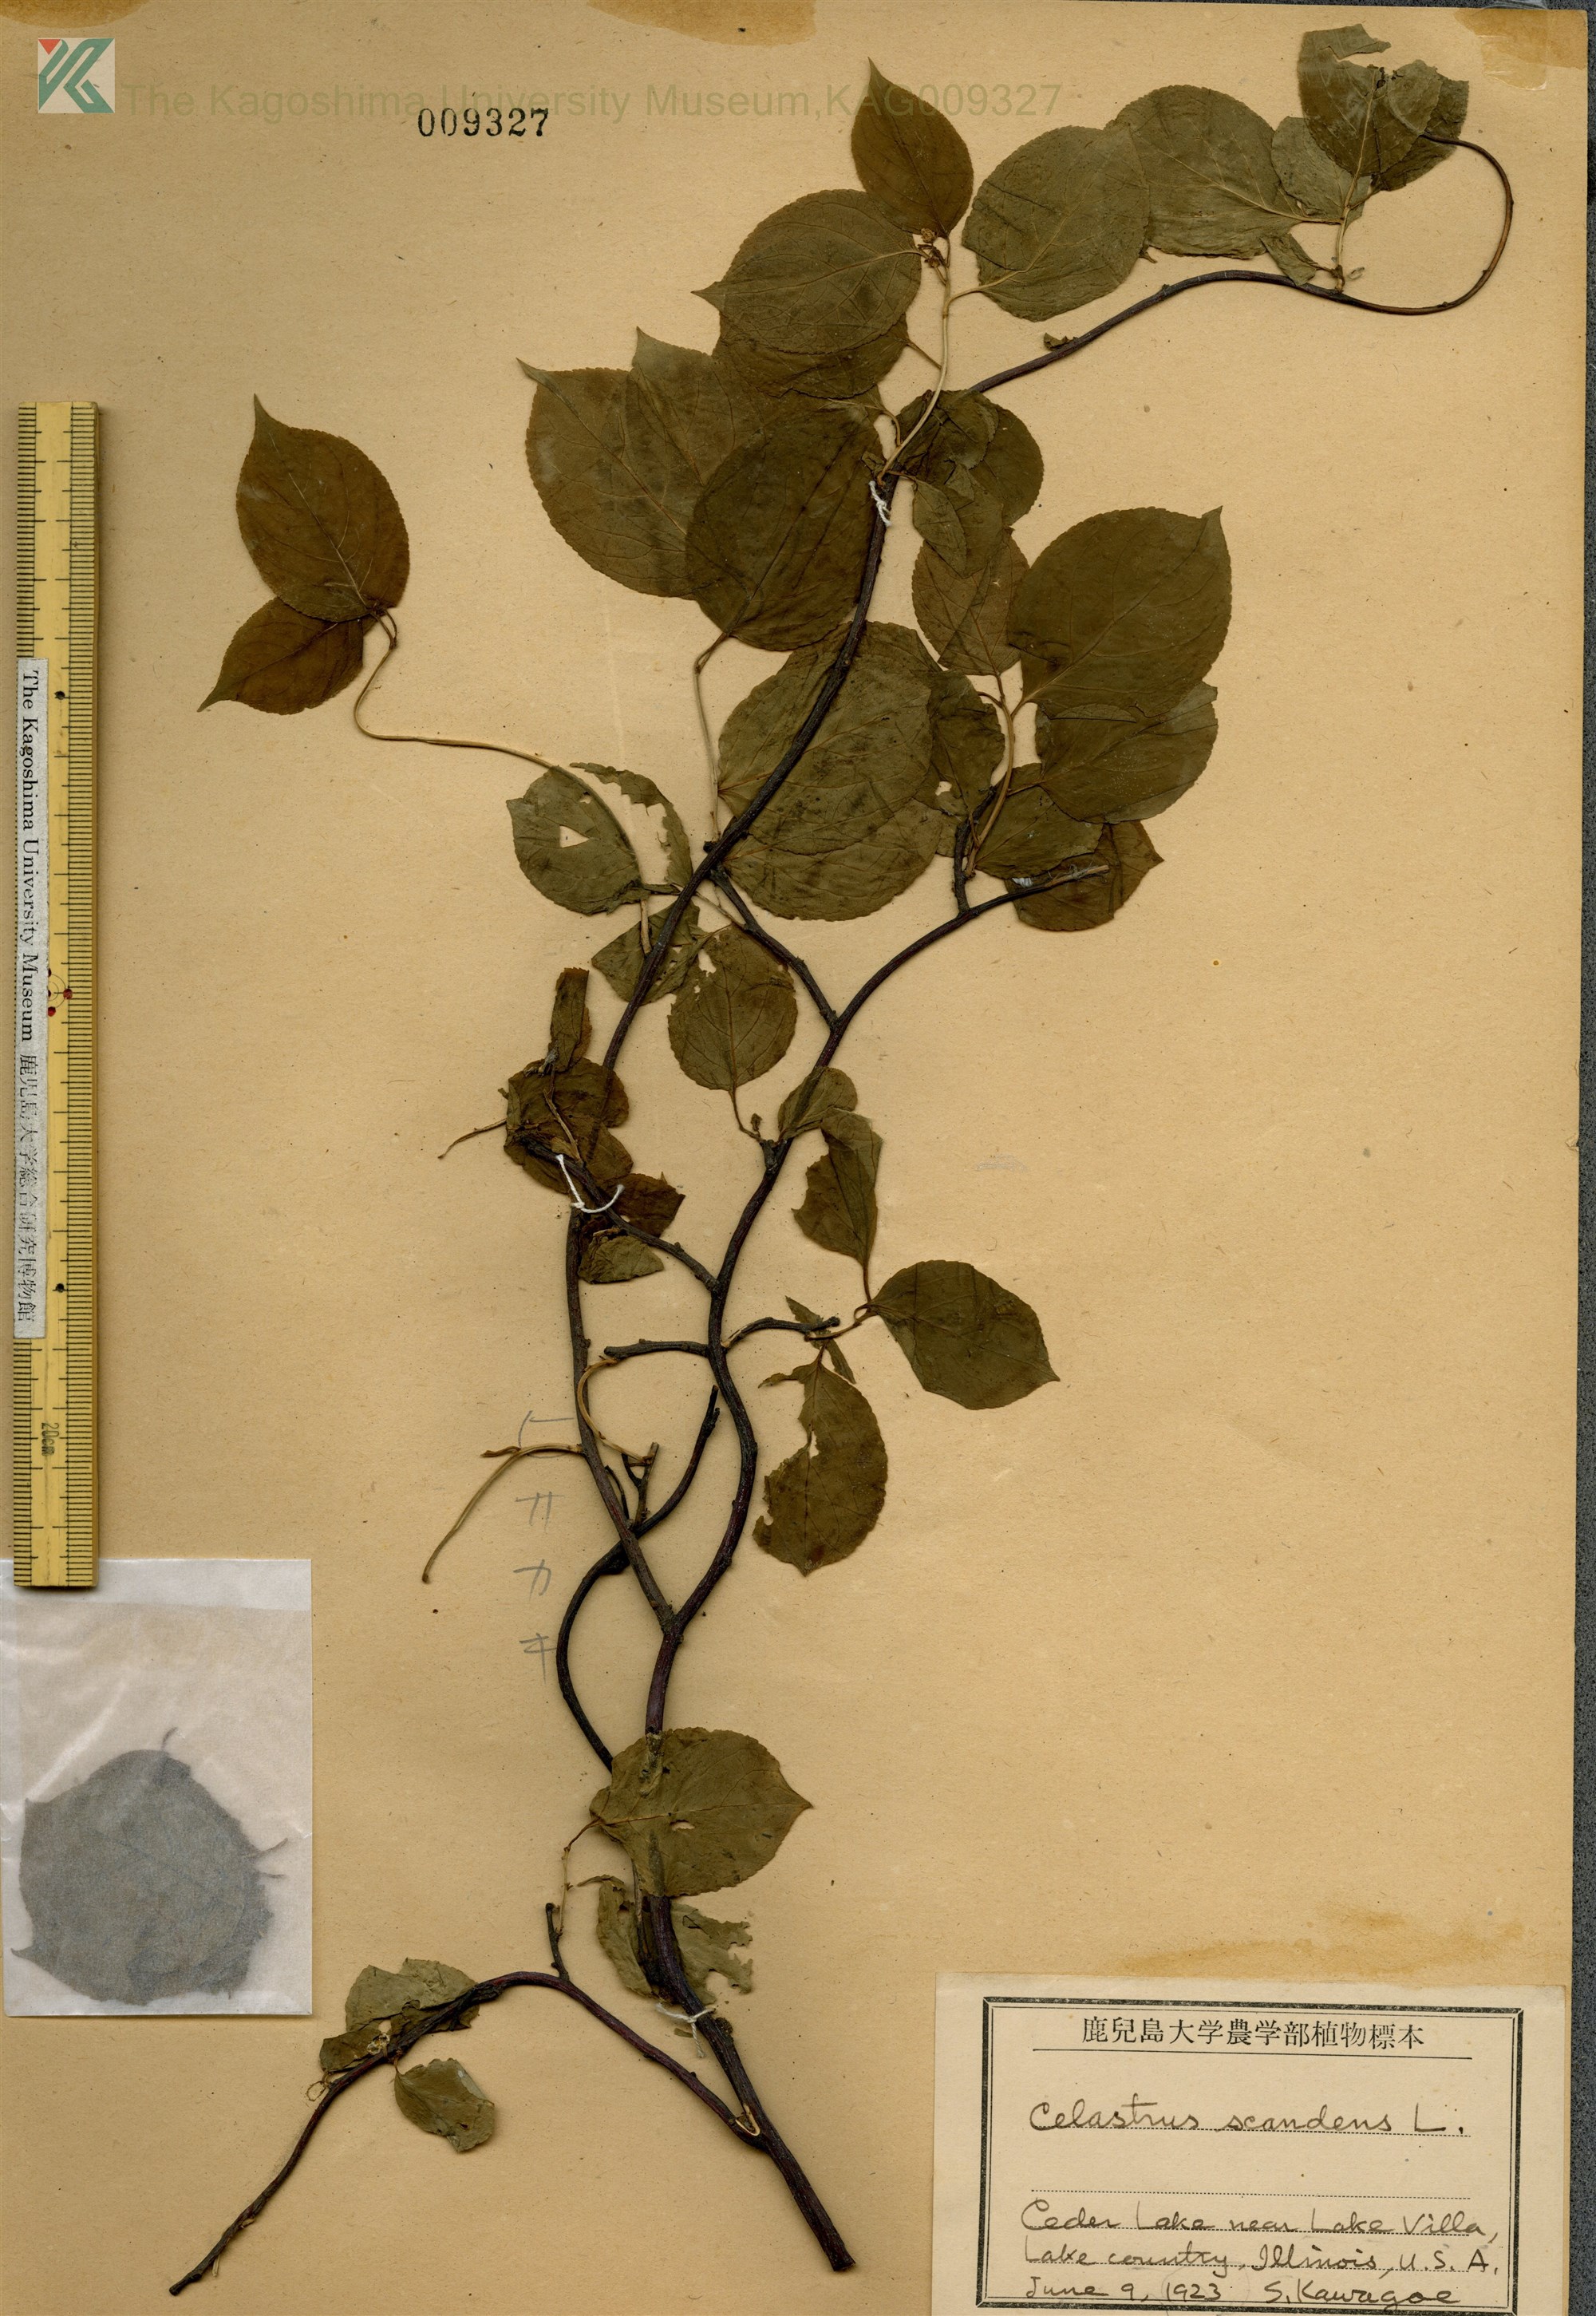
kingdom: Plantae
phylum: Tracheophyta
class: Magnoliopsida
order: Celastrales
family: Celastraceae
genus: Celastrus
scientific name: Celastrus scandens
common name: American bittersweet
